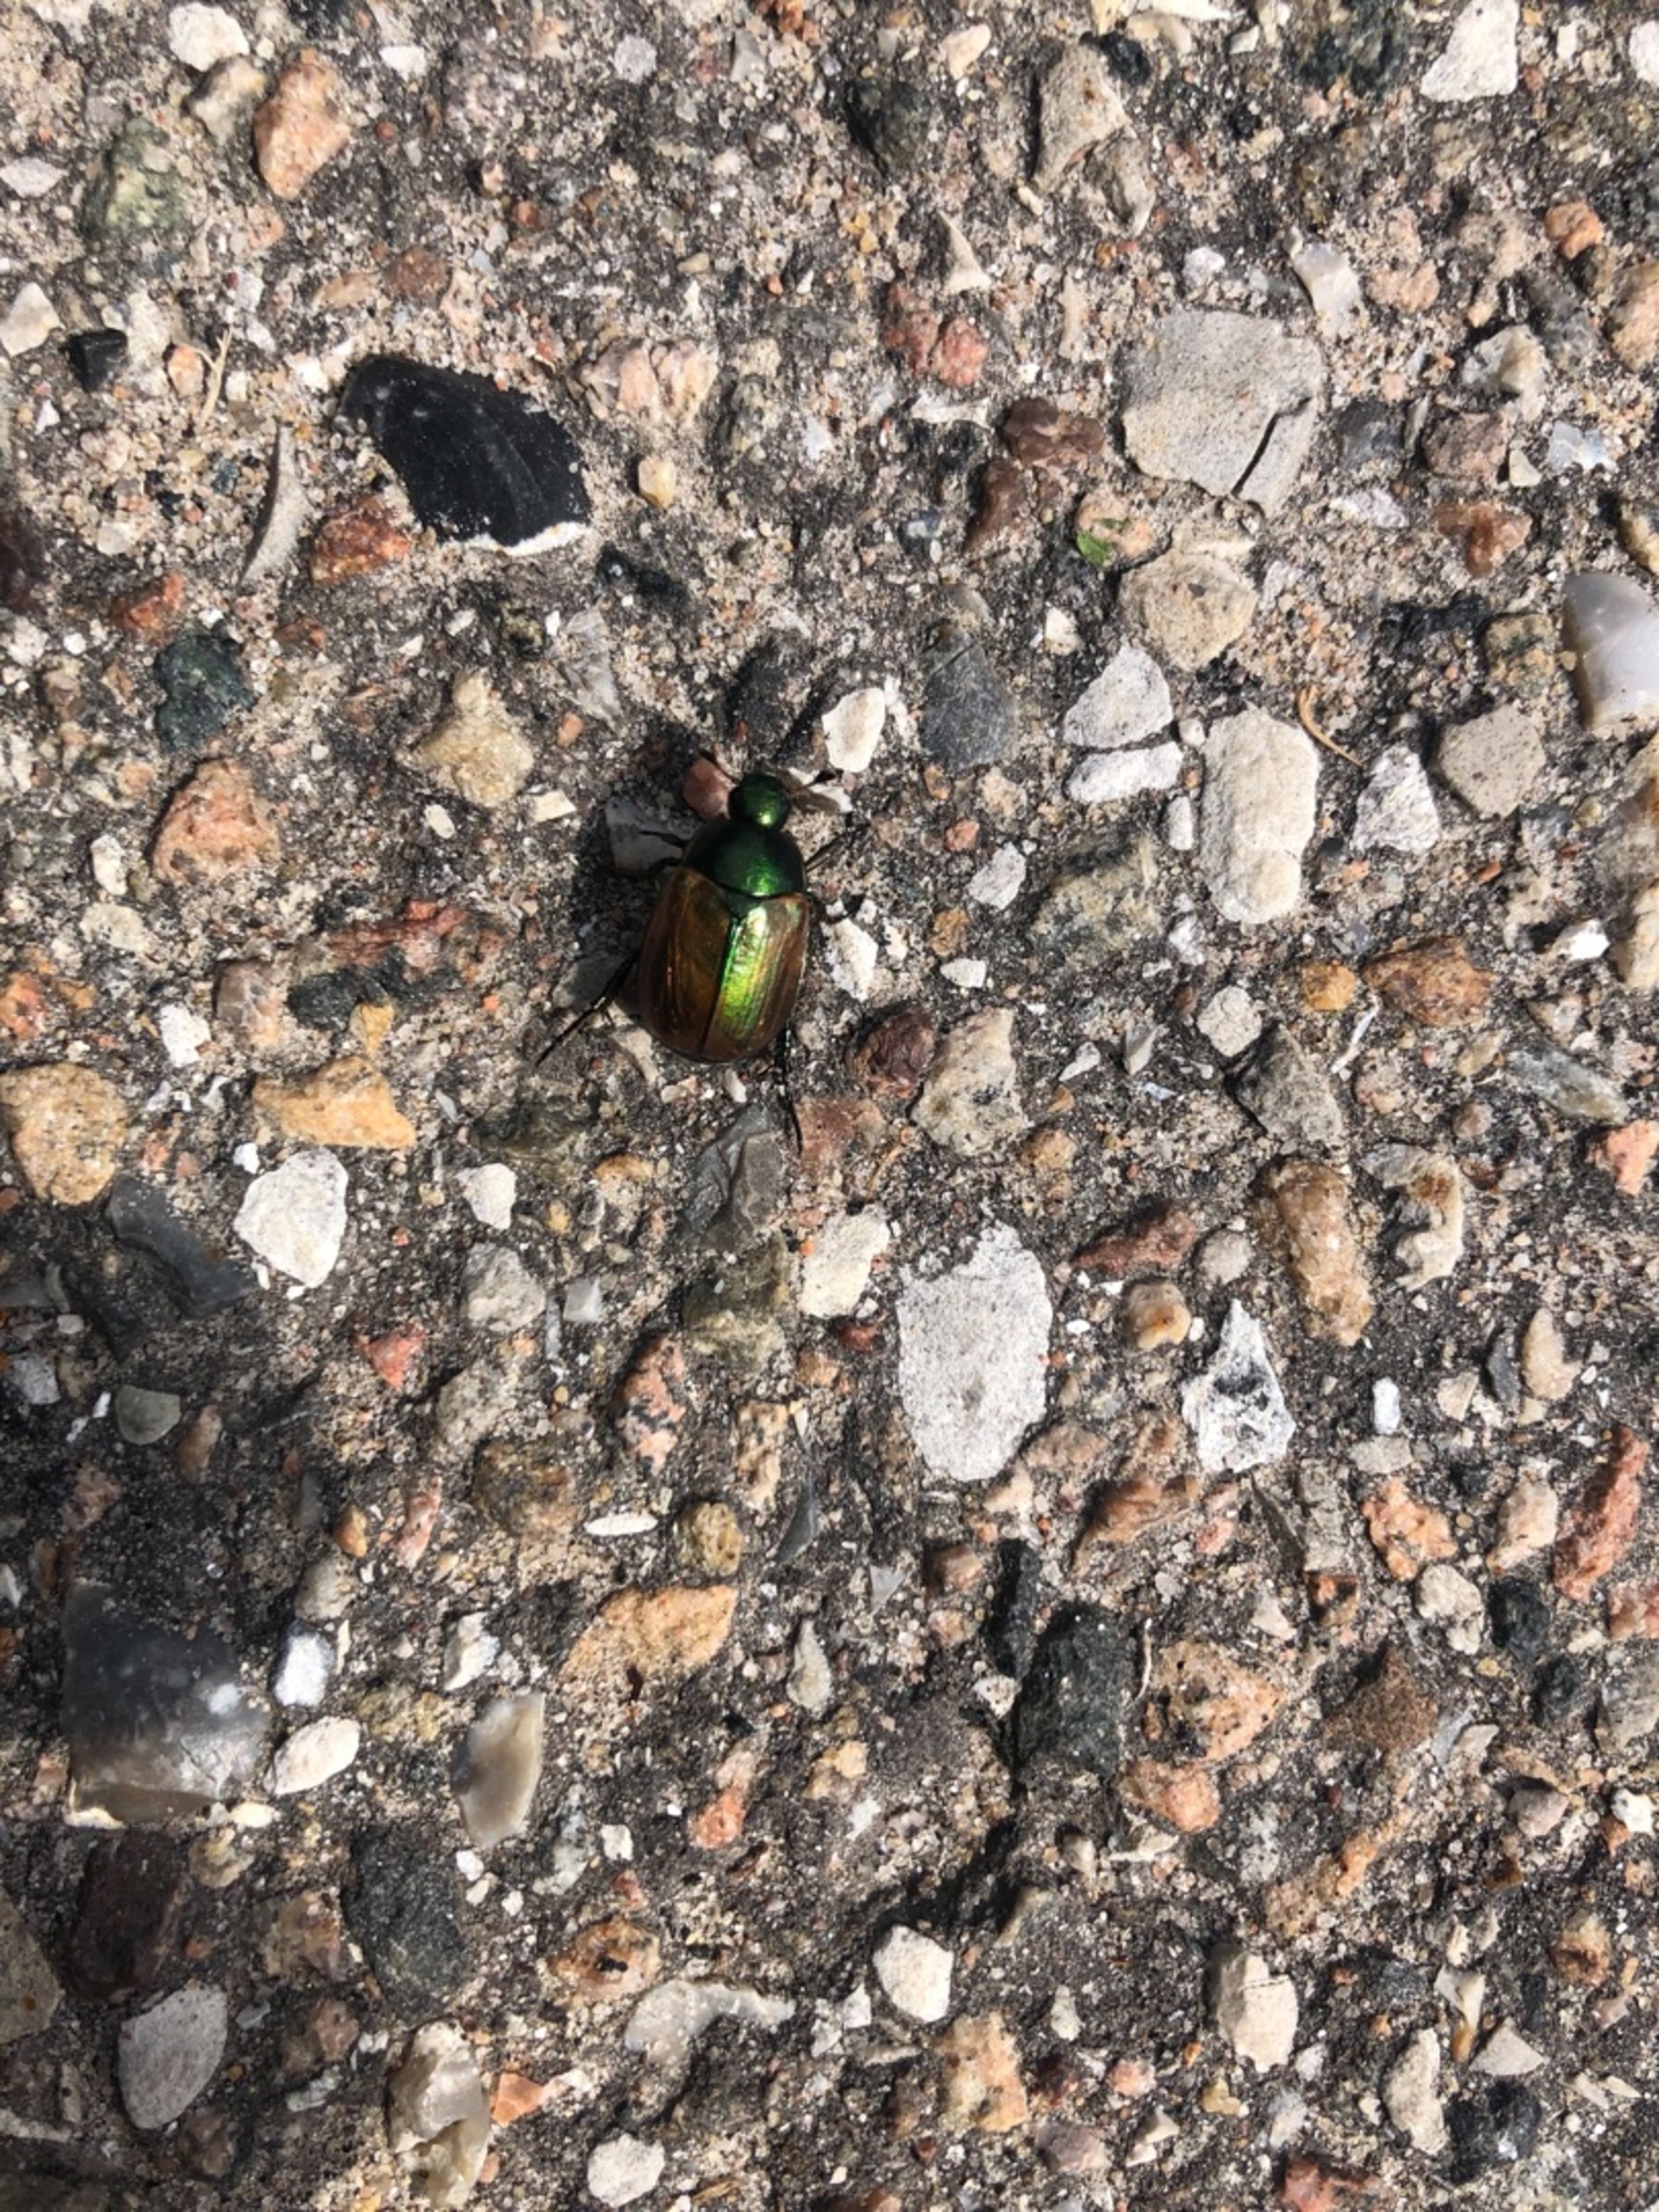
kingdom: Animalia
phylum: Arthropoda
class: Insecta
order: Coleoptera
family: Scarabaeidae
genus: Anomala
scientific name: Anomala dubia
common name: Klitoldenborre
